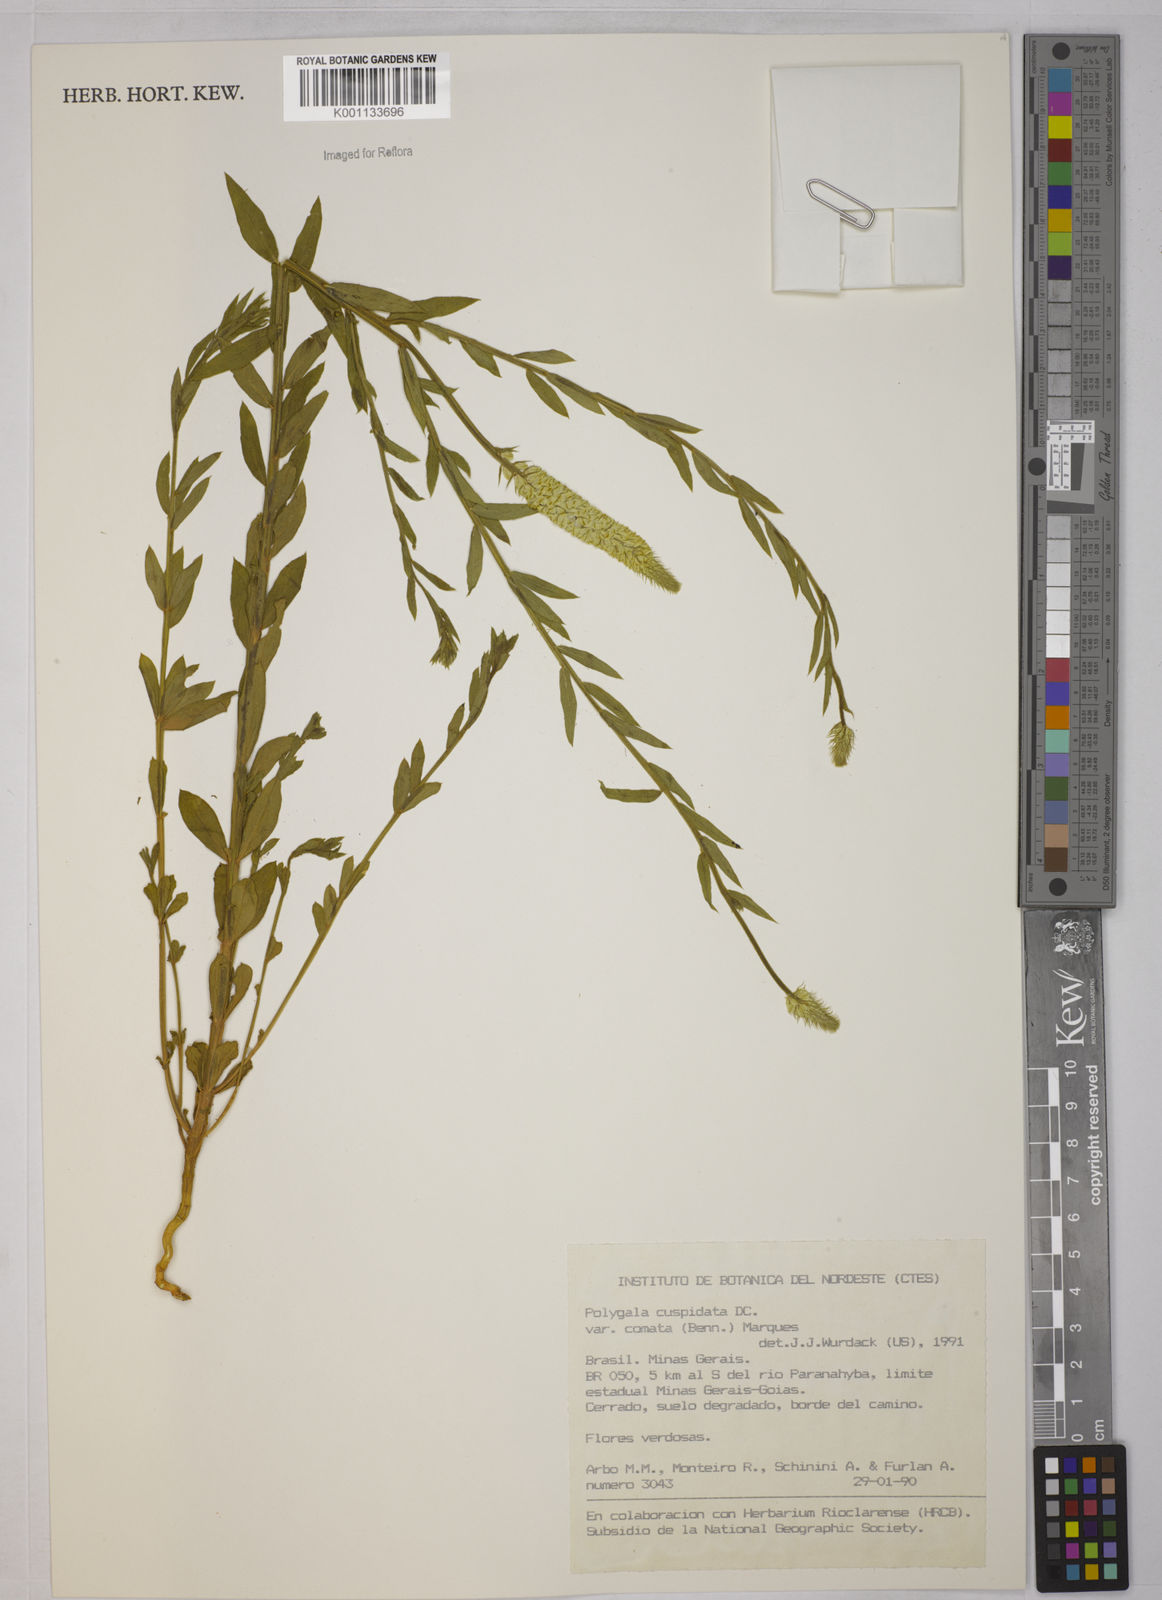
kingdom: Plantae
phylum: Tracheophyta
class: Magnoliopsida
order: Fabales
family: Polygalaceae
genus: Polygala
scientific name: Polygala cuspidata
